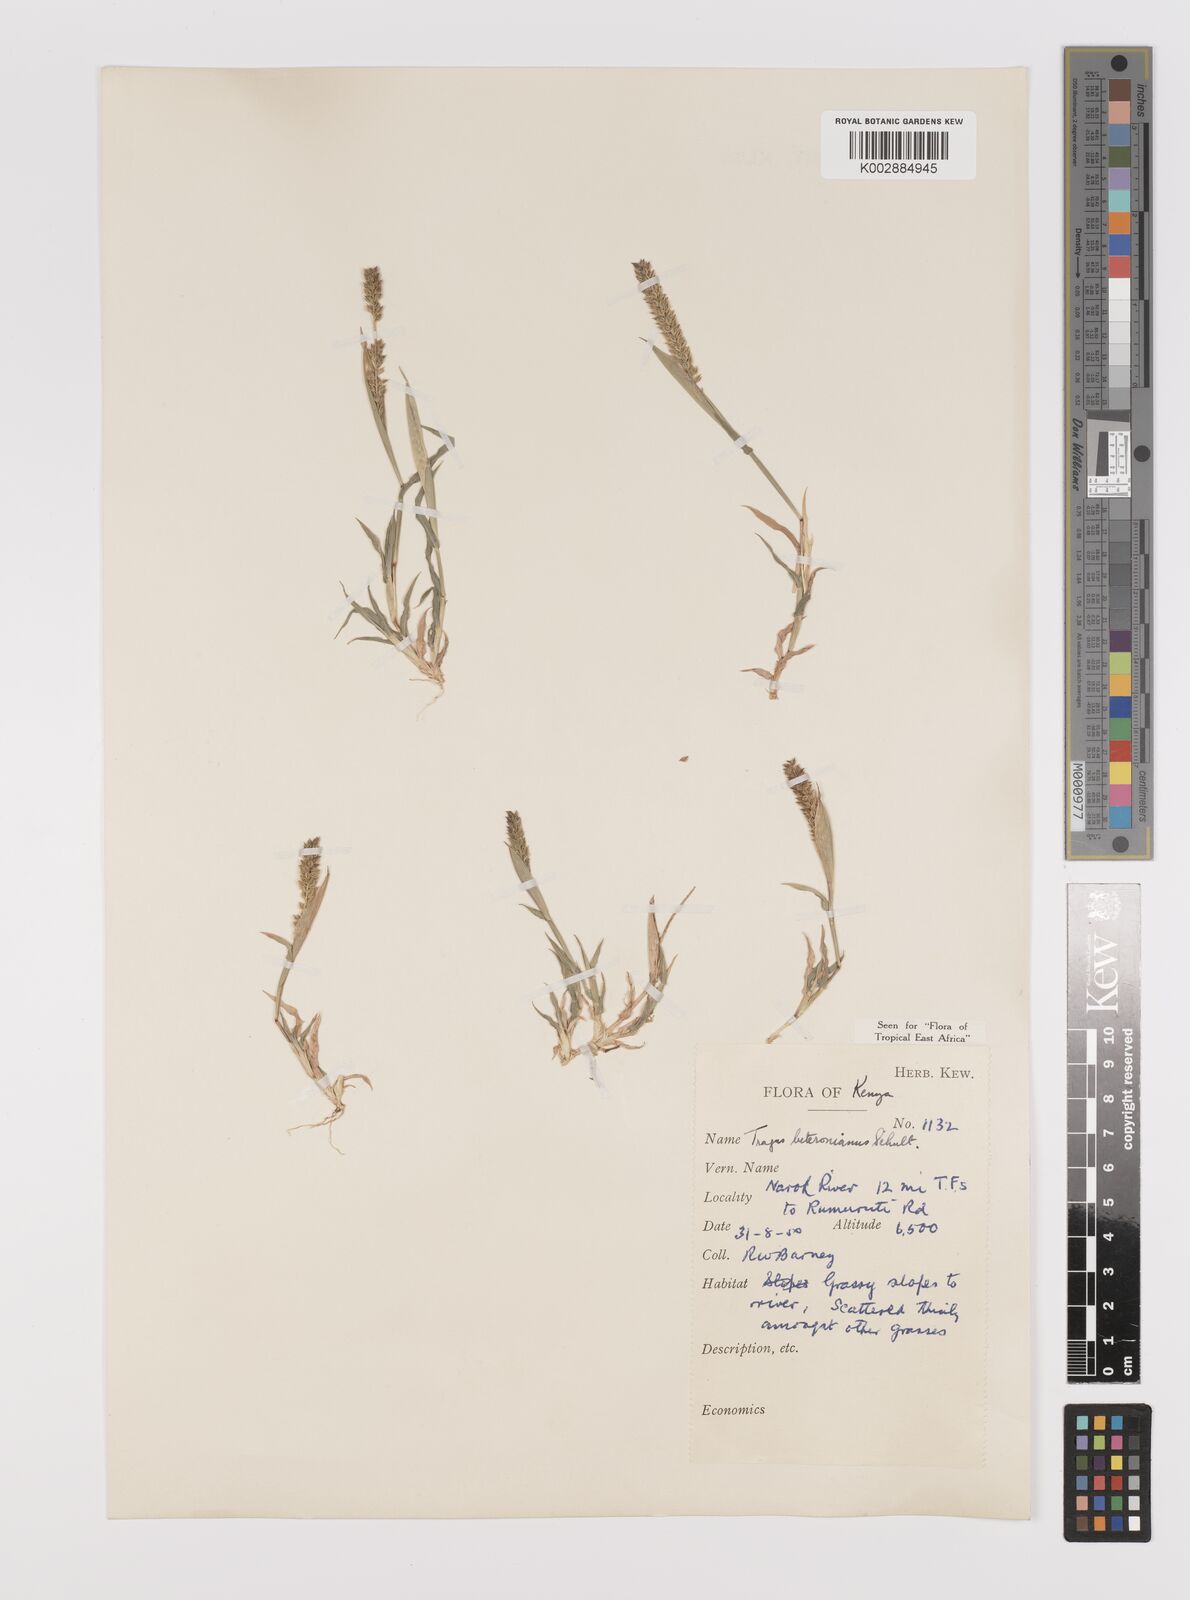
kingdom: Plantae
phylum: Tracheophyta
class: Liliopsida
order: Poales
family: Poaceae
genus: Tragus
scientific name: Tragus berteronianus
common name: African bur-grass
